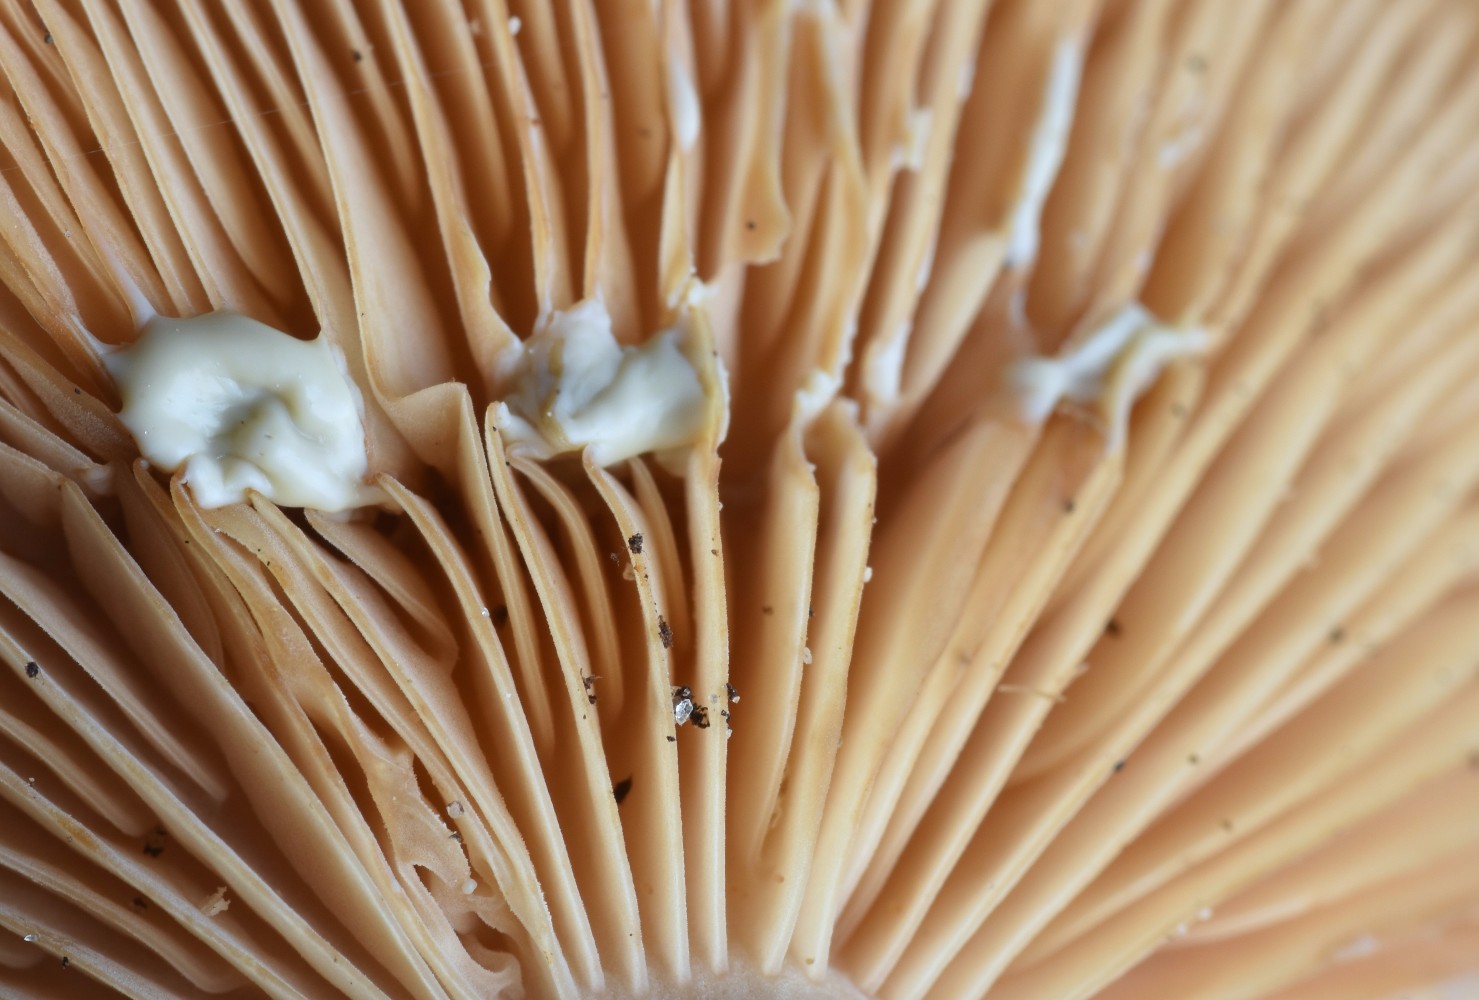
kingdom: Fungi
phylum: Basidiomycota
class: Agaricomycetes
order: Russulales
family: Russulaceae
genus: Lactarius
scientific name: Lactarius pyrogalus
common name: hassel-mælkehat
